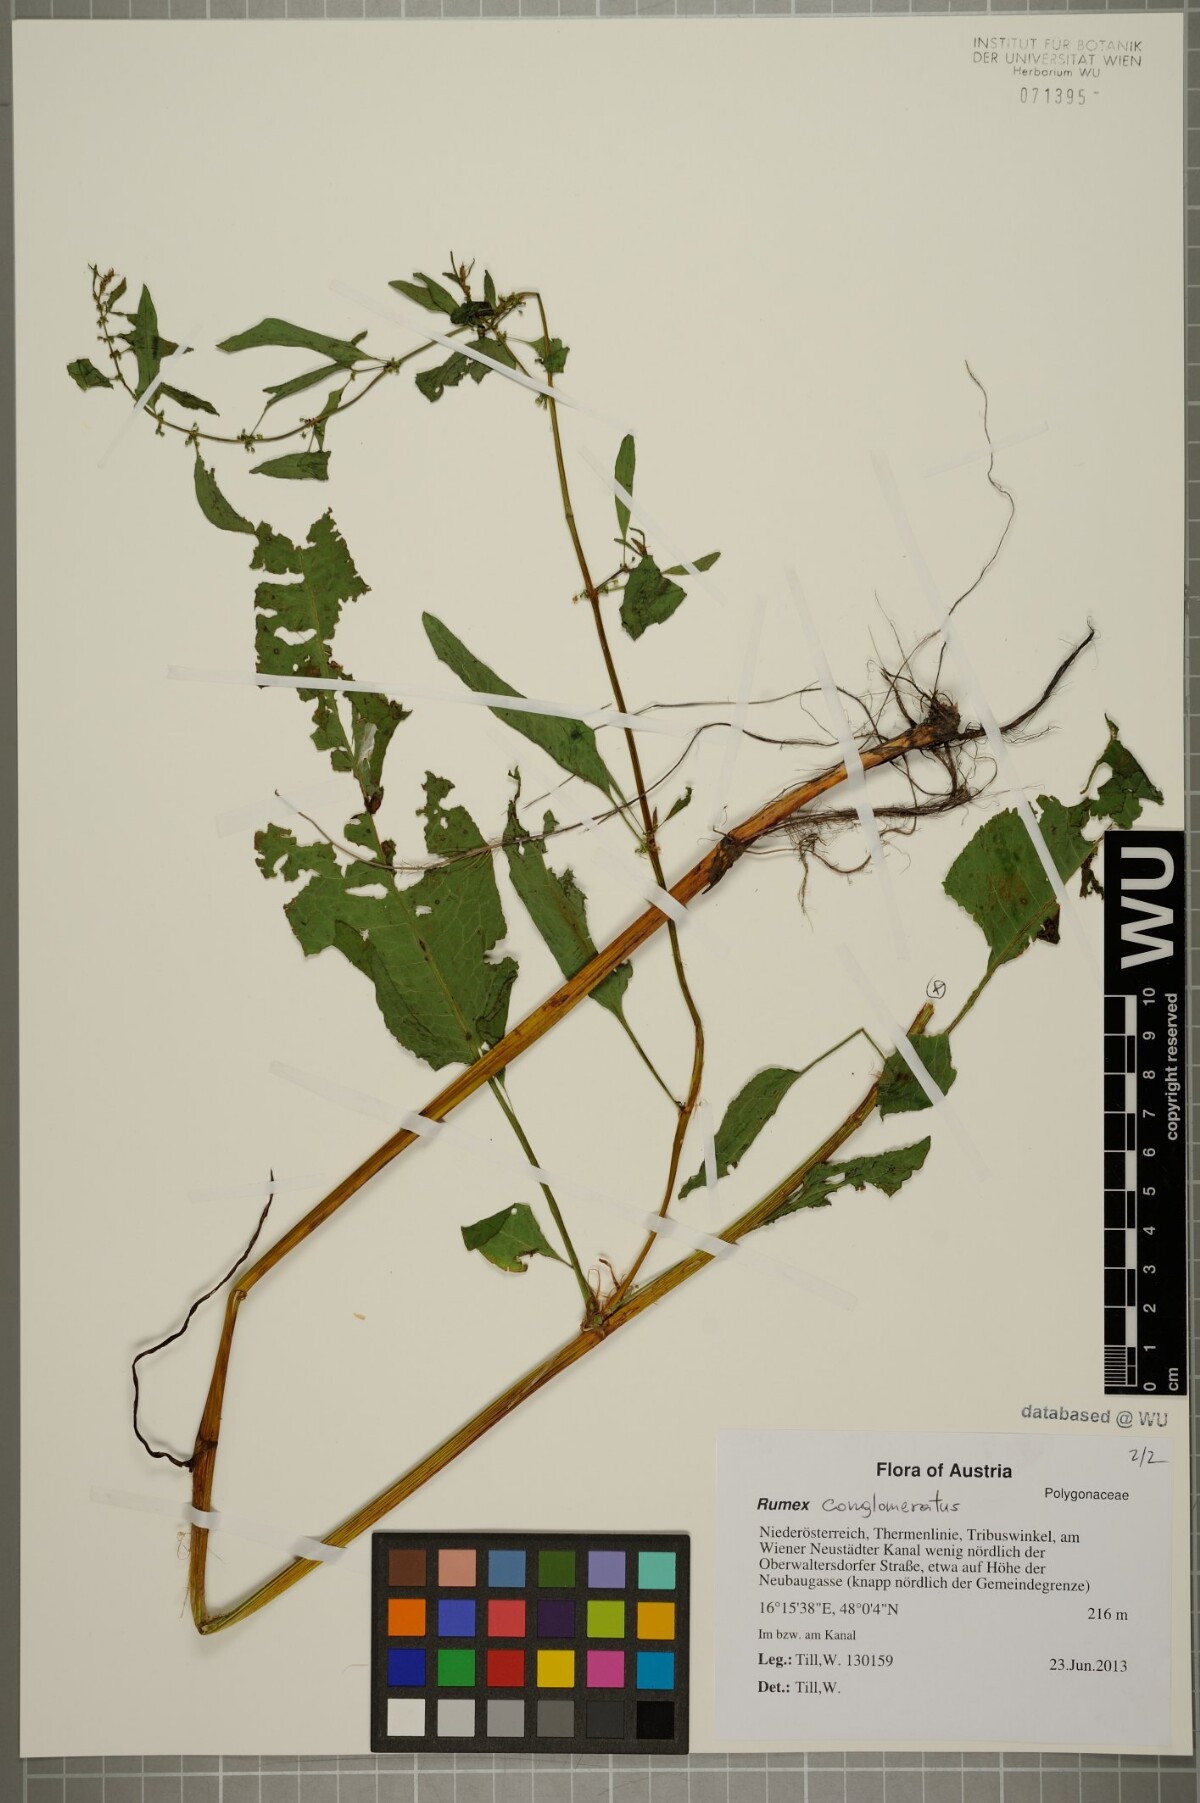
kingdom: Plantae
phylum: Tracheophyta
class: Magnoliopsida
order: Caryophyllales
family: Polygonaceae
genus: Rumex
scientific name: Rumex conglomeratus
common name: Clustered dock
